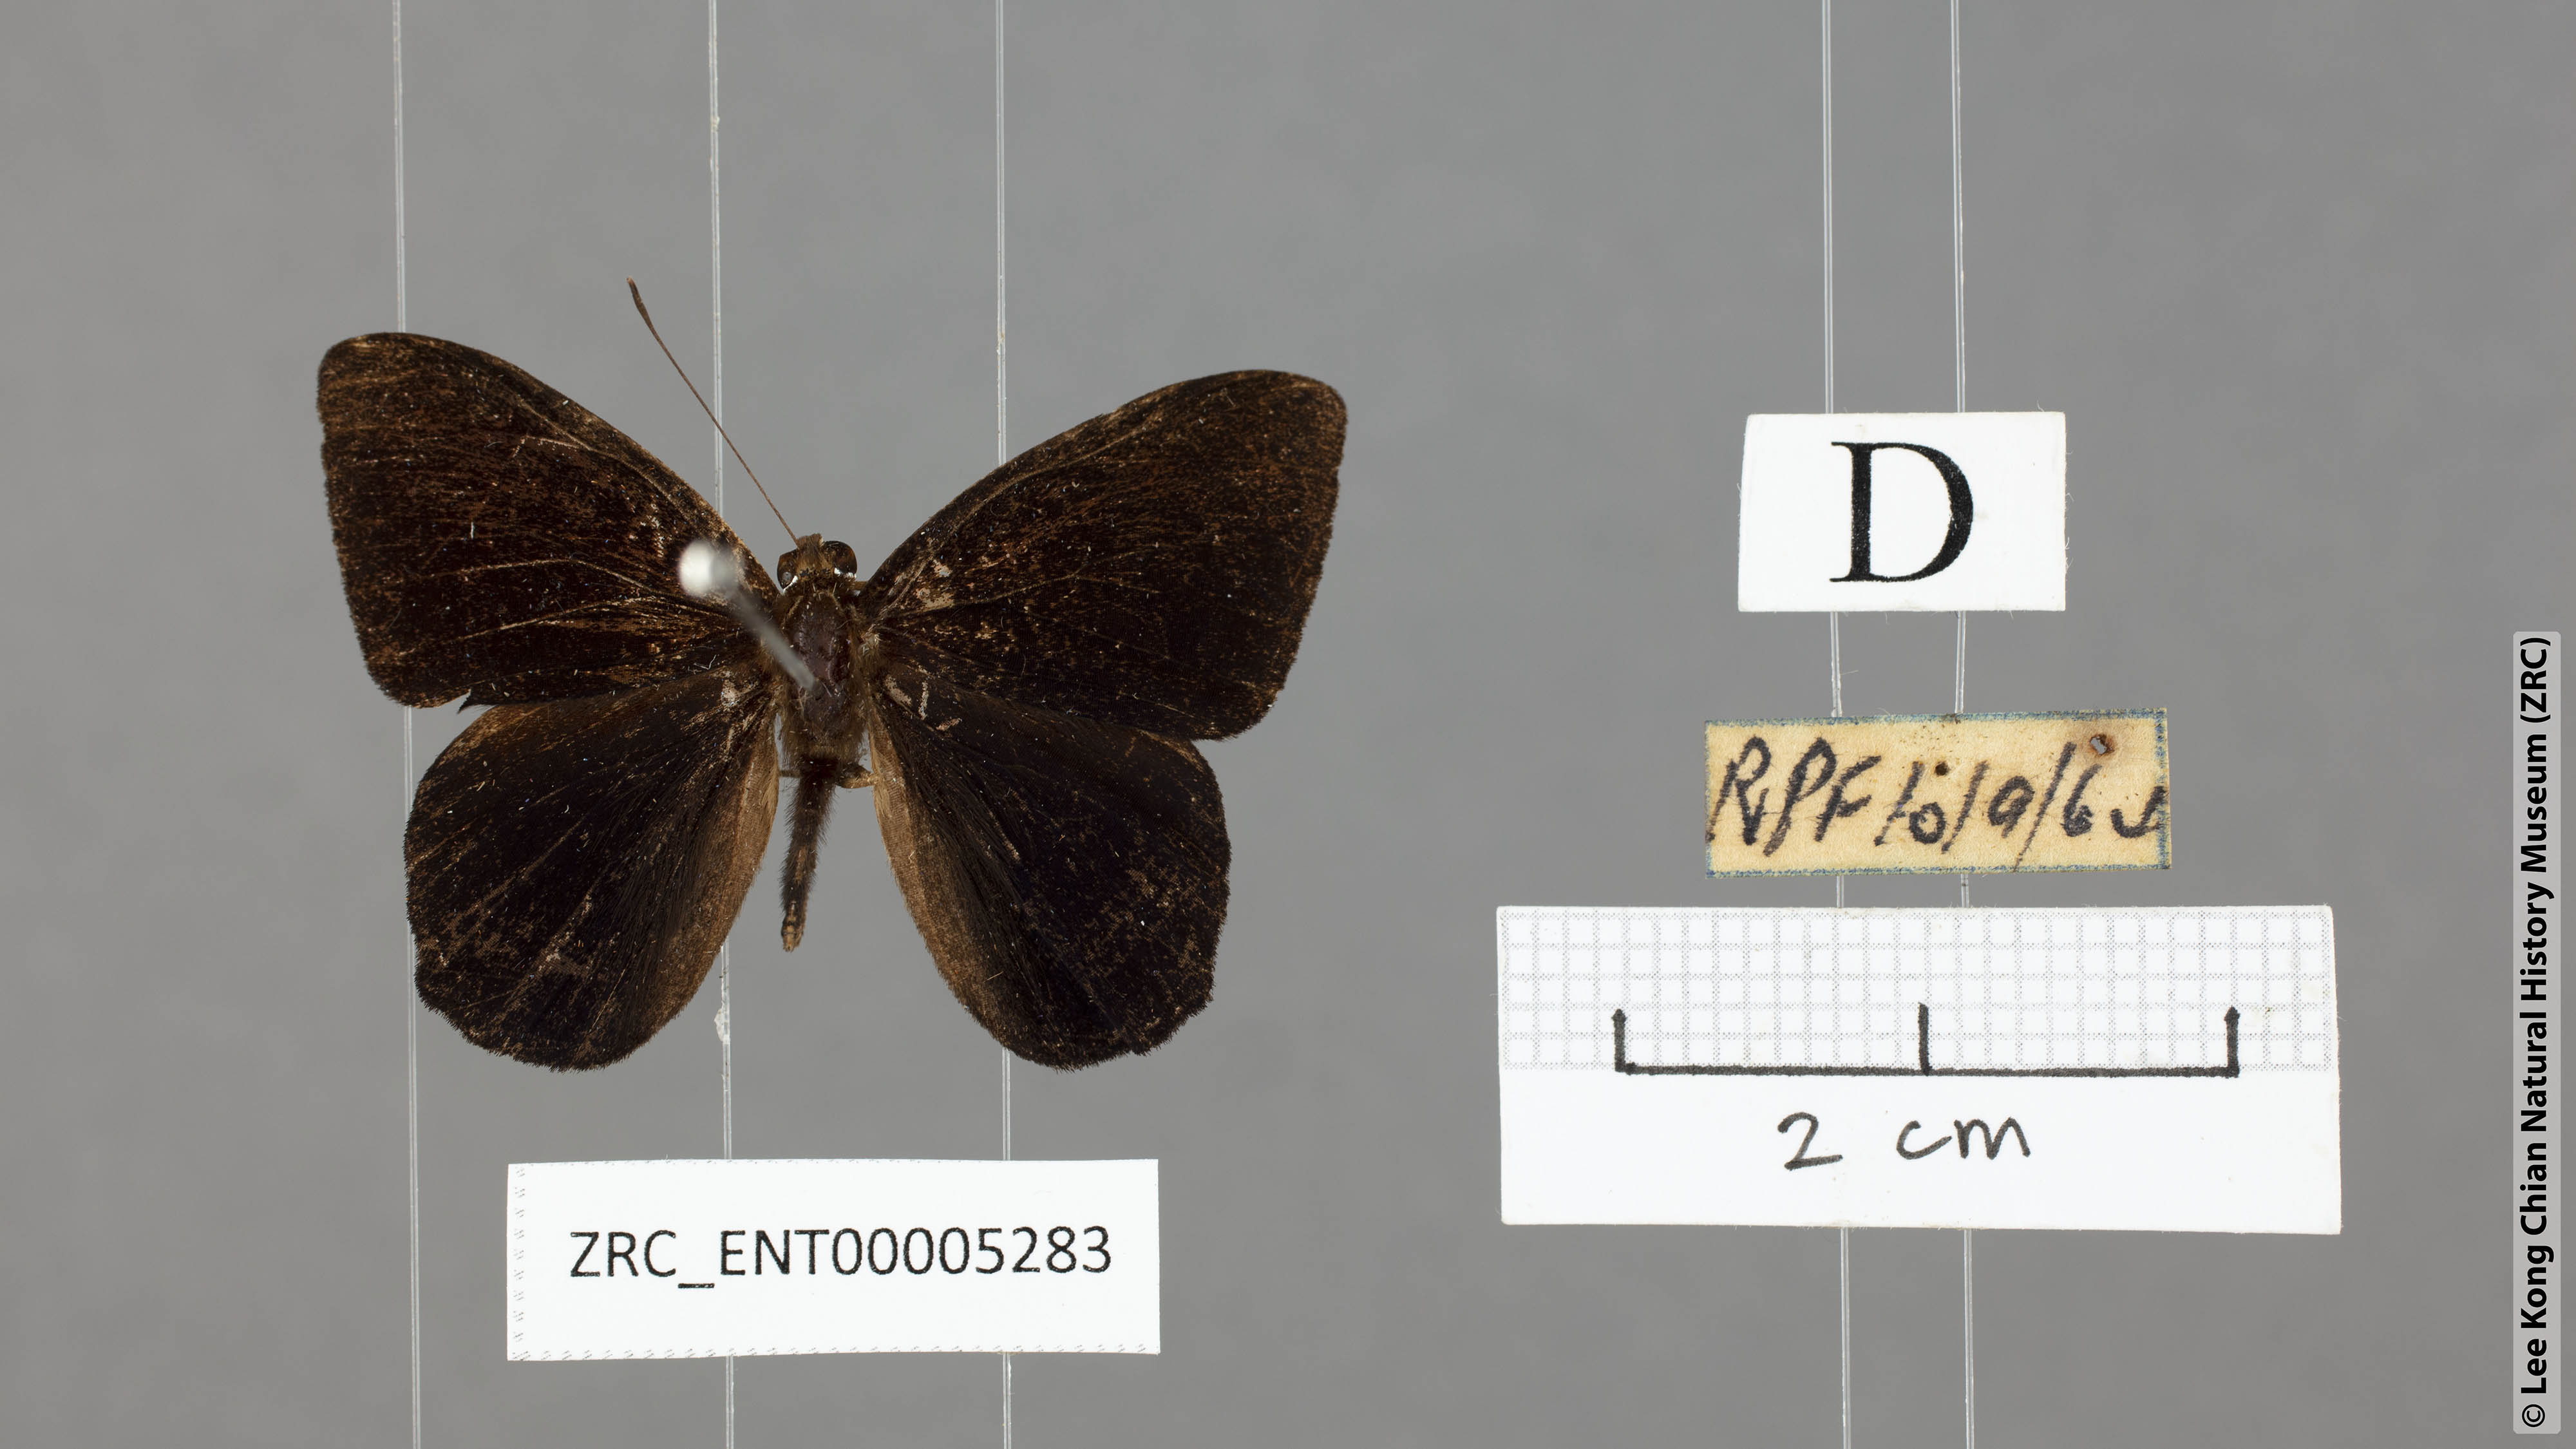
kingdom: Animalia
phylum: Arthropoda
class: Insecta
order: Lepidoptera
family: Riodinidae
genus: Laxita
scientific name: Laxita thuisto
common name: Lesser harlequin
